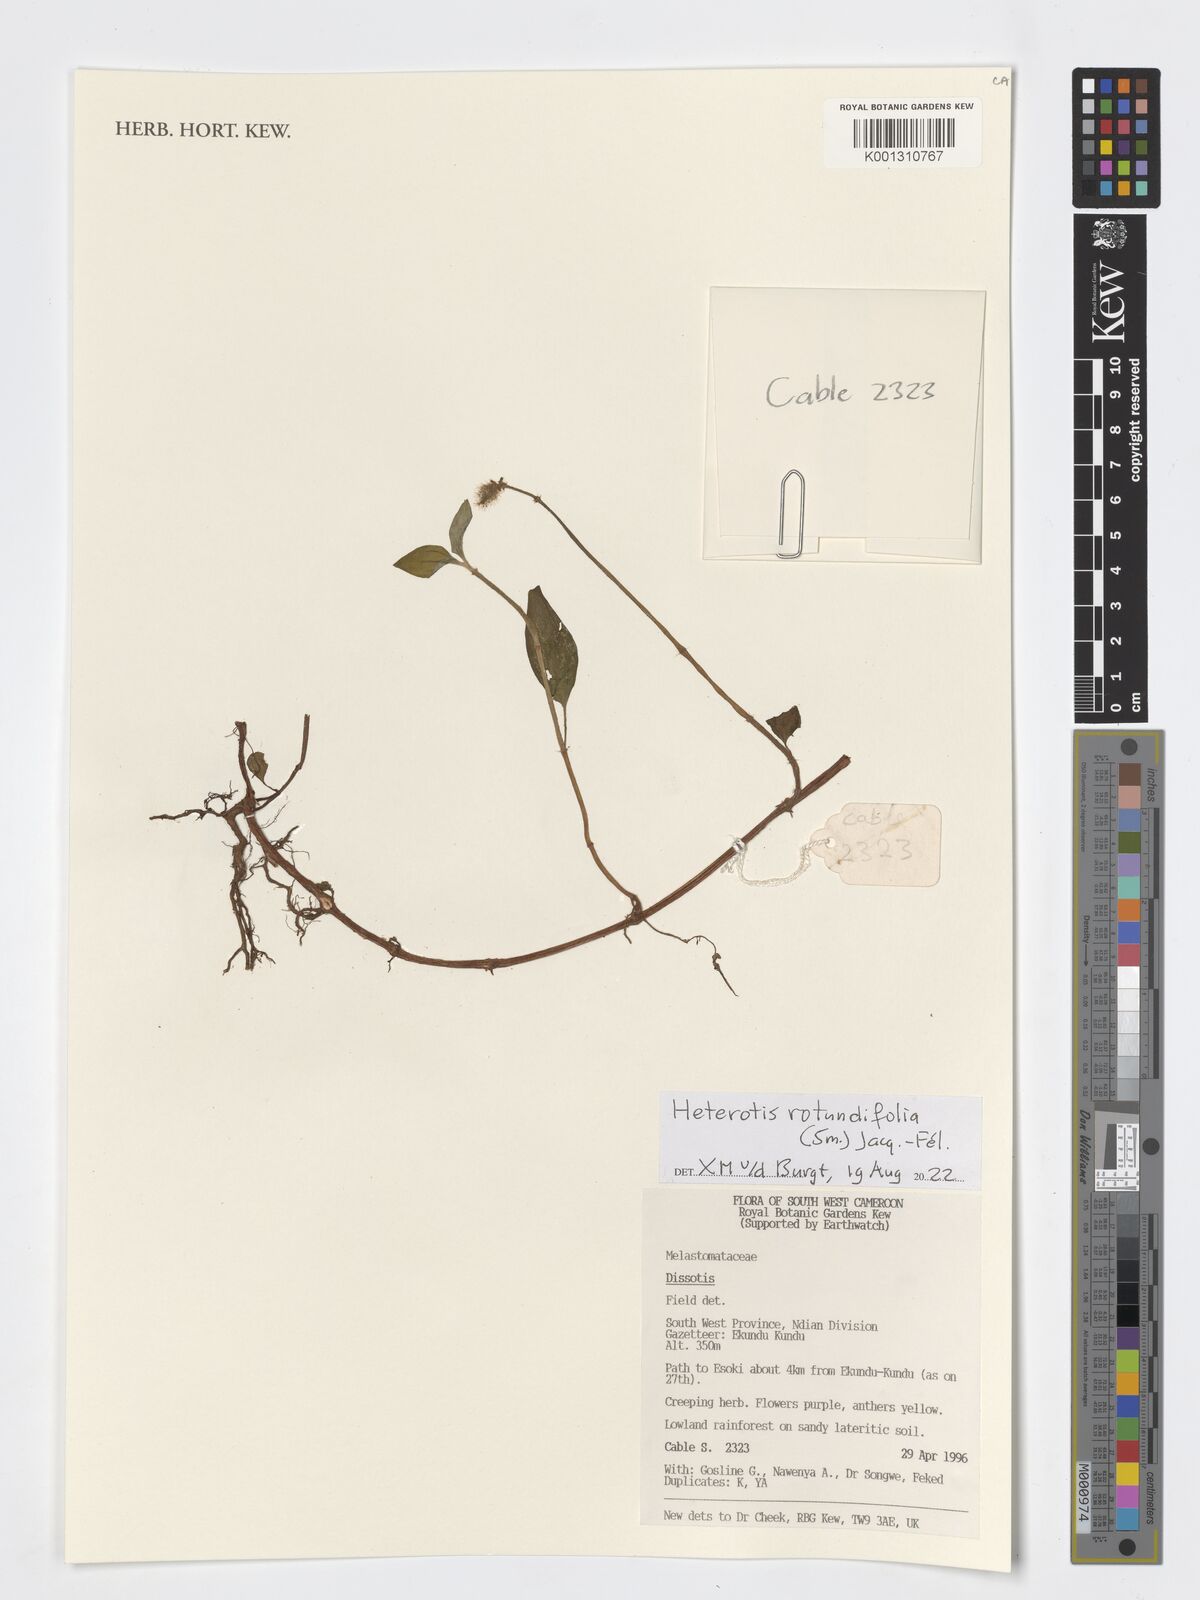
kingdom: Plantae
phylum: Tracheophyta
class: Magnoliopsida
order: Myrtales
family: Melastomataceae
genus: Heterotis
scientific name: Heterotis rotundifolia
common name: Pinklady
